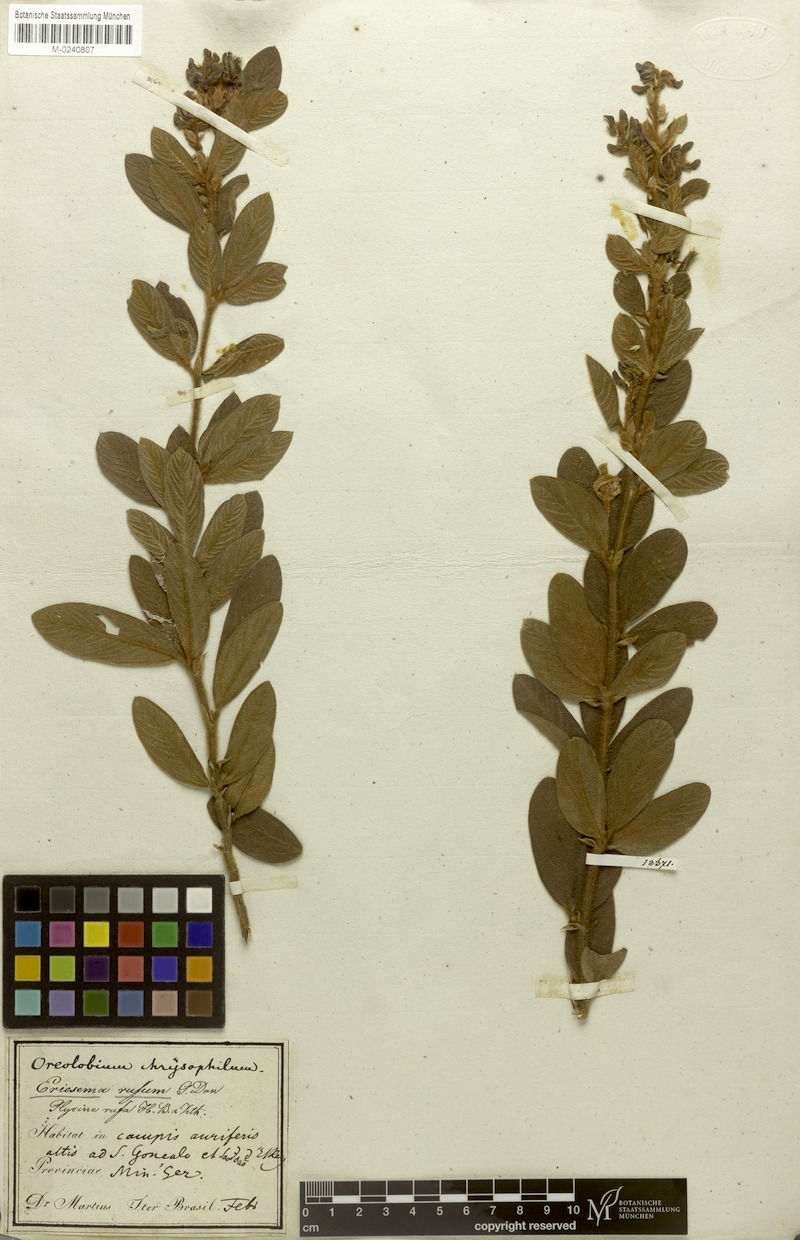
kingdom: Plantae
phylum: Tracheophyta
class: Magnoliopsida
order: Fabales
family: Fabaceae
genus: Eriosema
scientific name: Eriosema rufum
